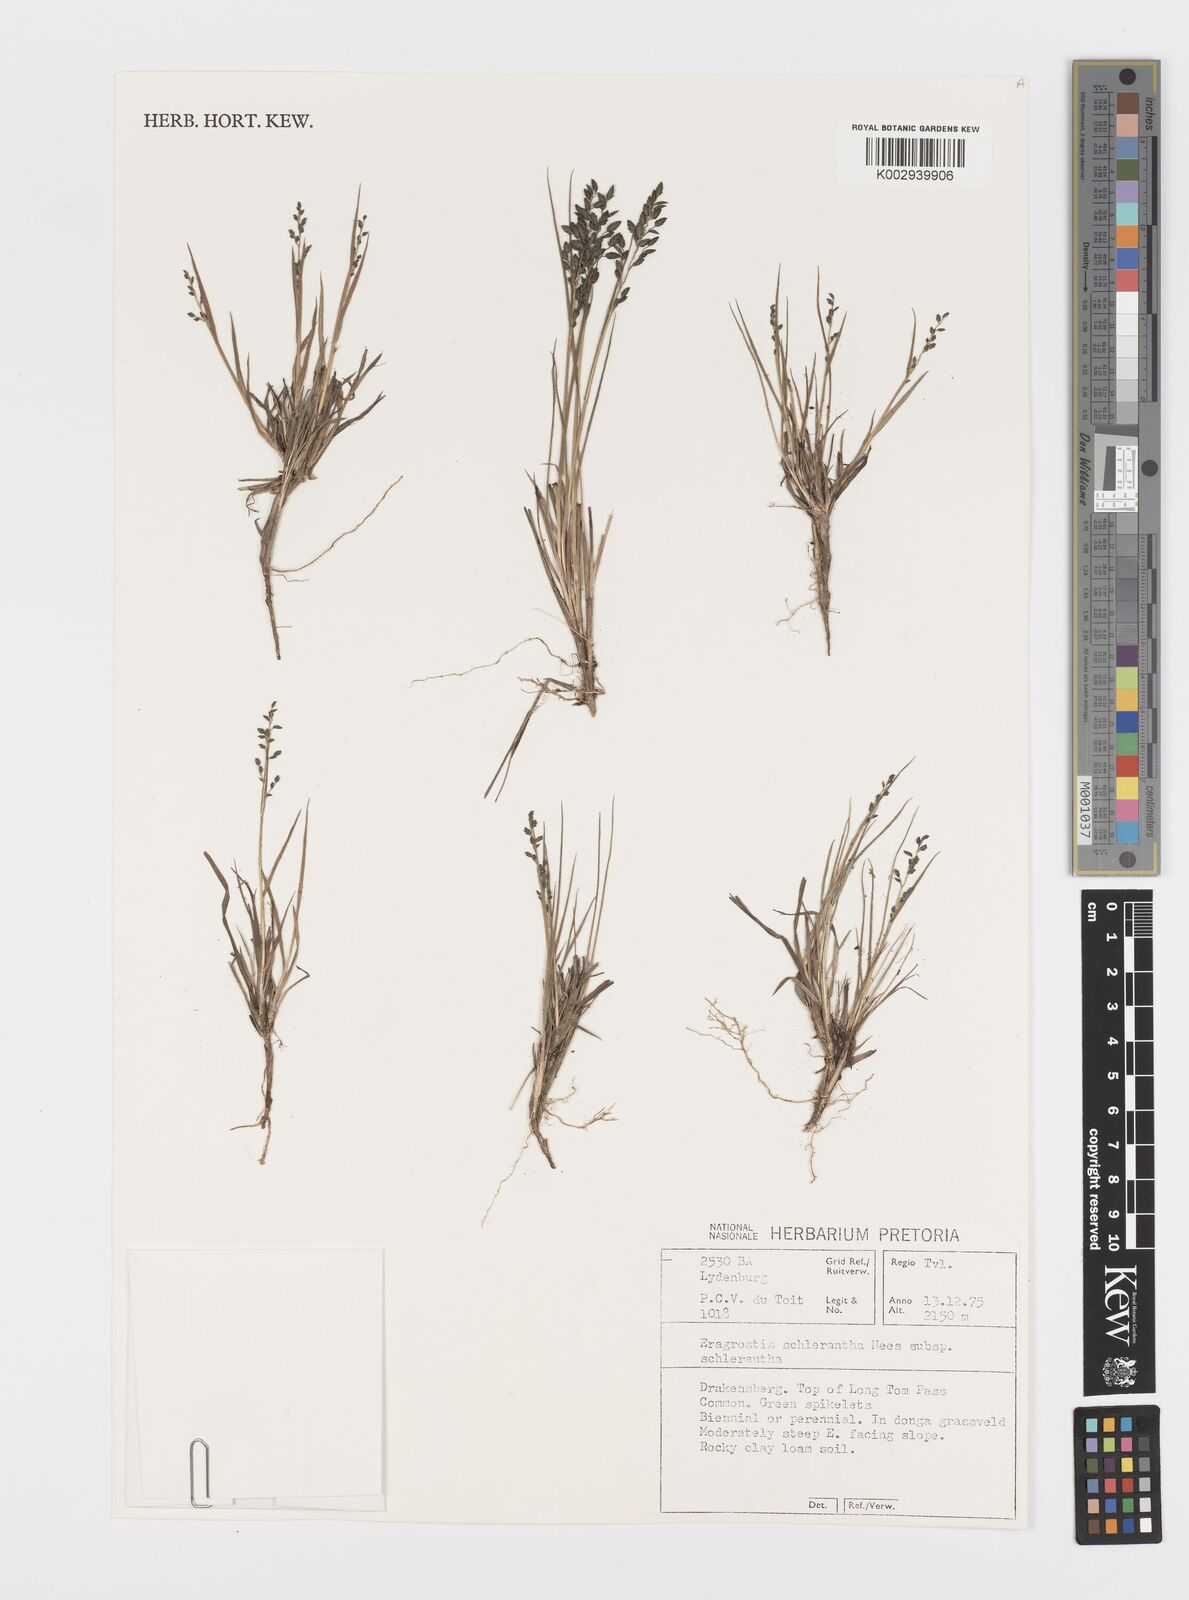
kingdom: Plantae
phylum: Tracheophyta
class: Liliopsida
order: Poales
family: Poaceae
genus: Eragrostis
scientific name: Eragrostis sclerantha
